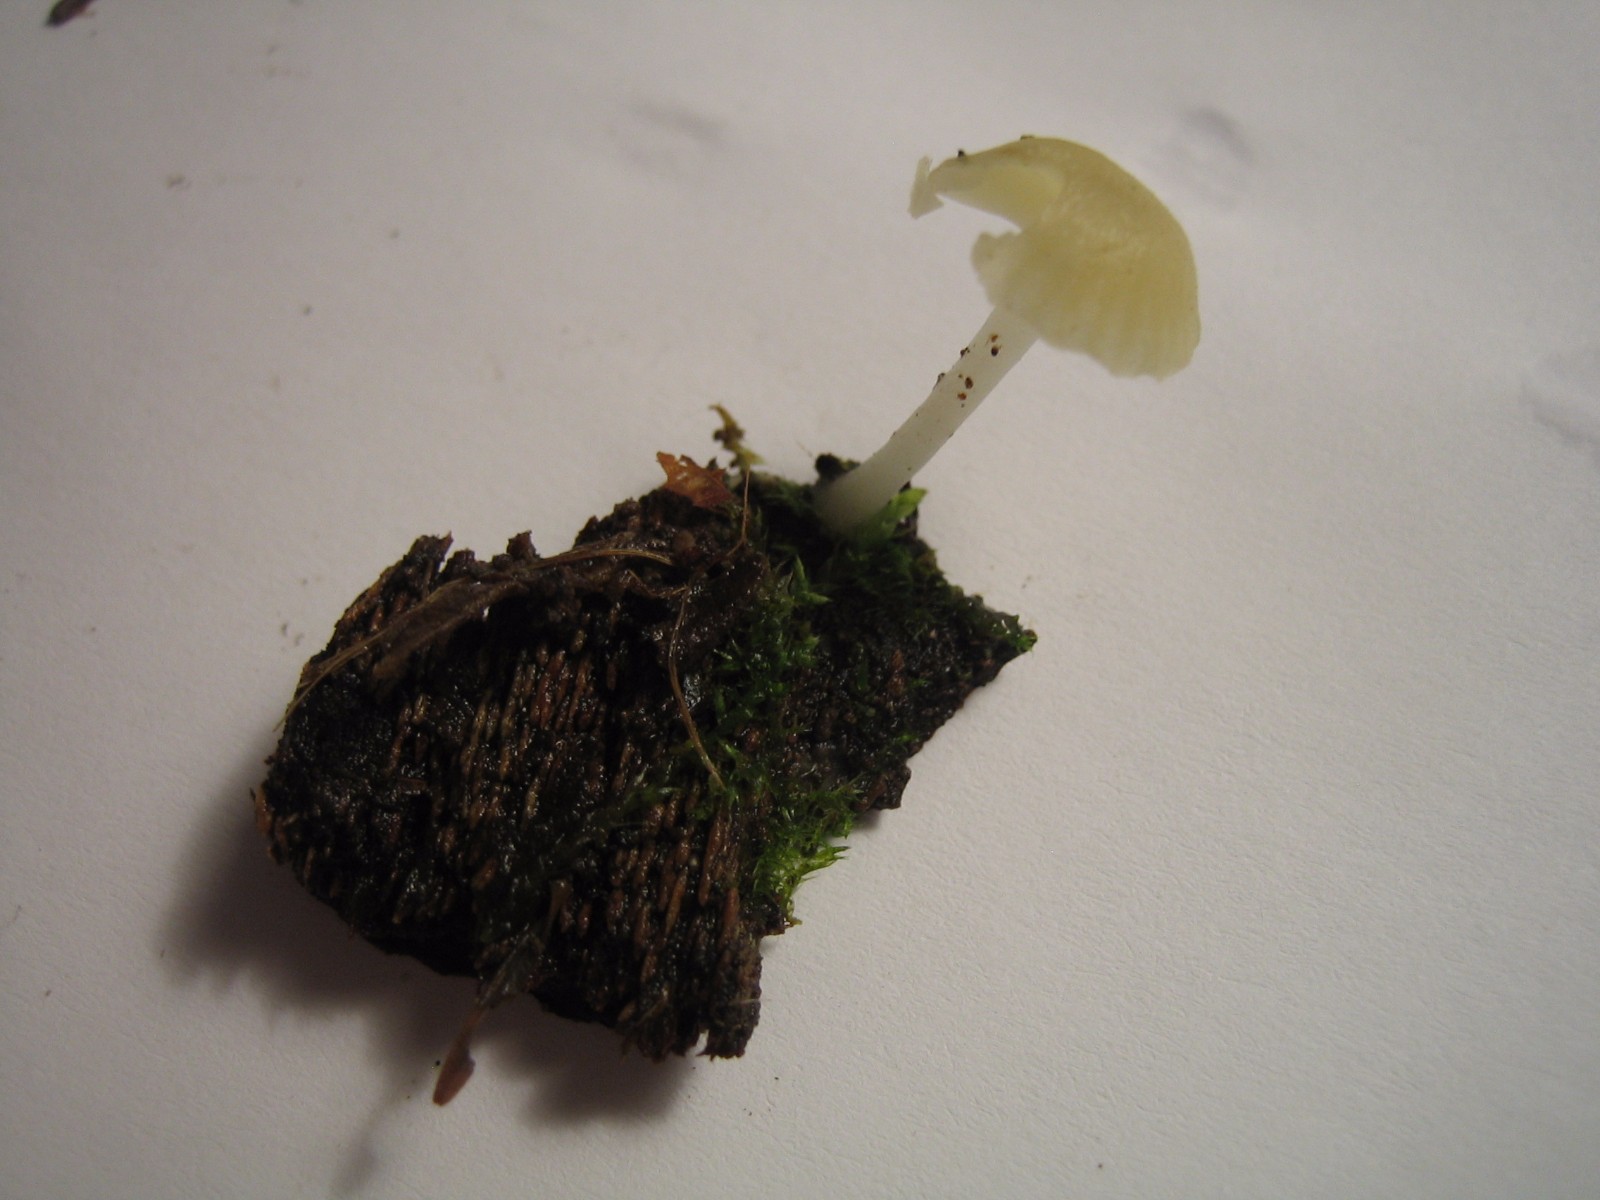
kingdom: Fungi
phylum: Basidiomycota
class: Agaricomycetes
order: Agaricales
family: Hygrophoraceae
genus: Chrysomphalina
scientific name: Chrysomphalina grossula
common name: stød-gyldenblad
